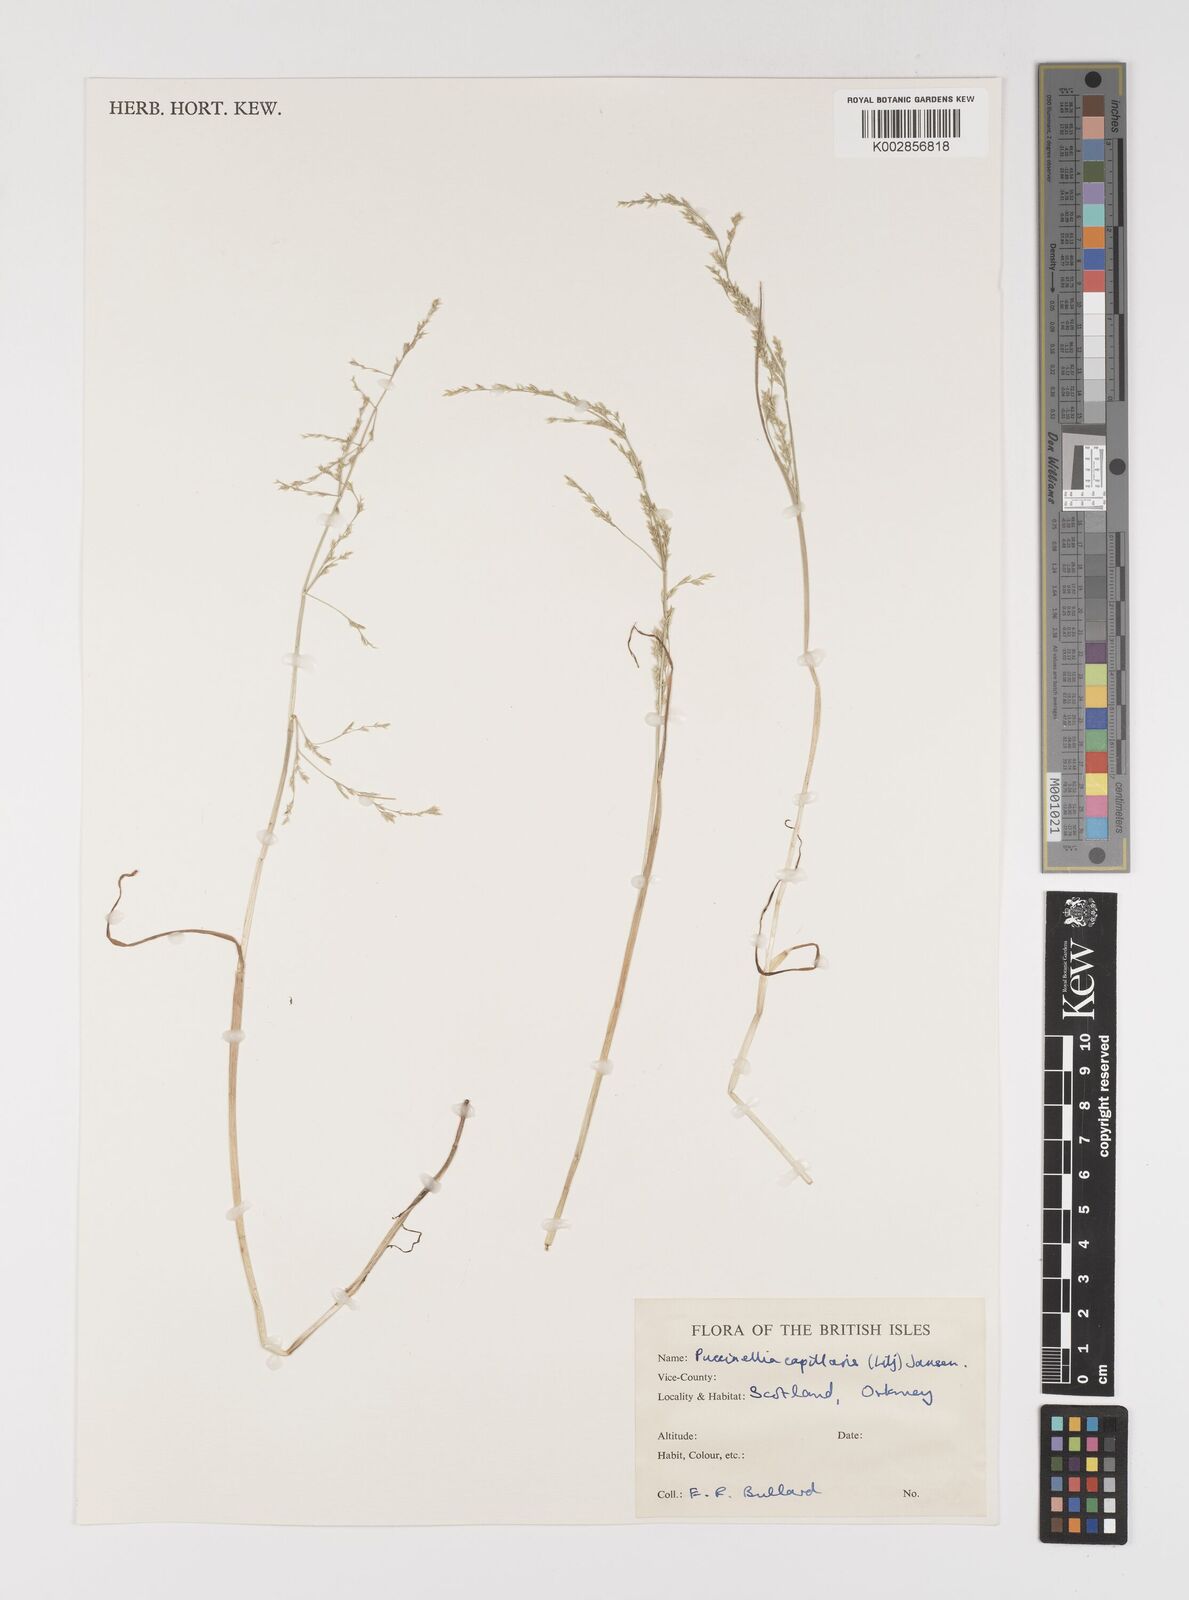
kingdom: Plantae
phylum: Tracheophyta
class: Liliopsida
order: Poales
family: Poaceae
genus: Puccinellia
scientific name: Puccinellia distans
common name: Weeping alkaligrass
